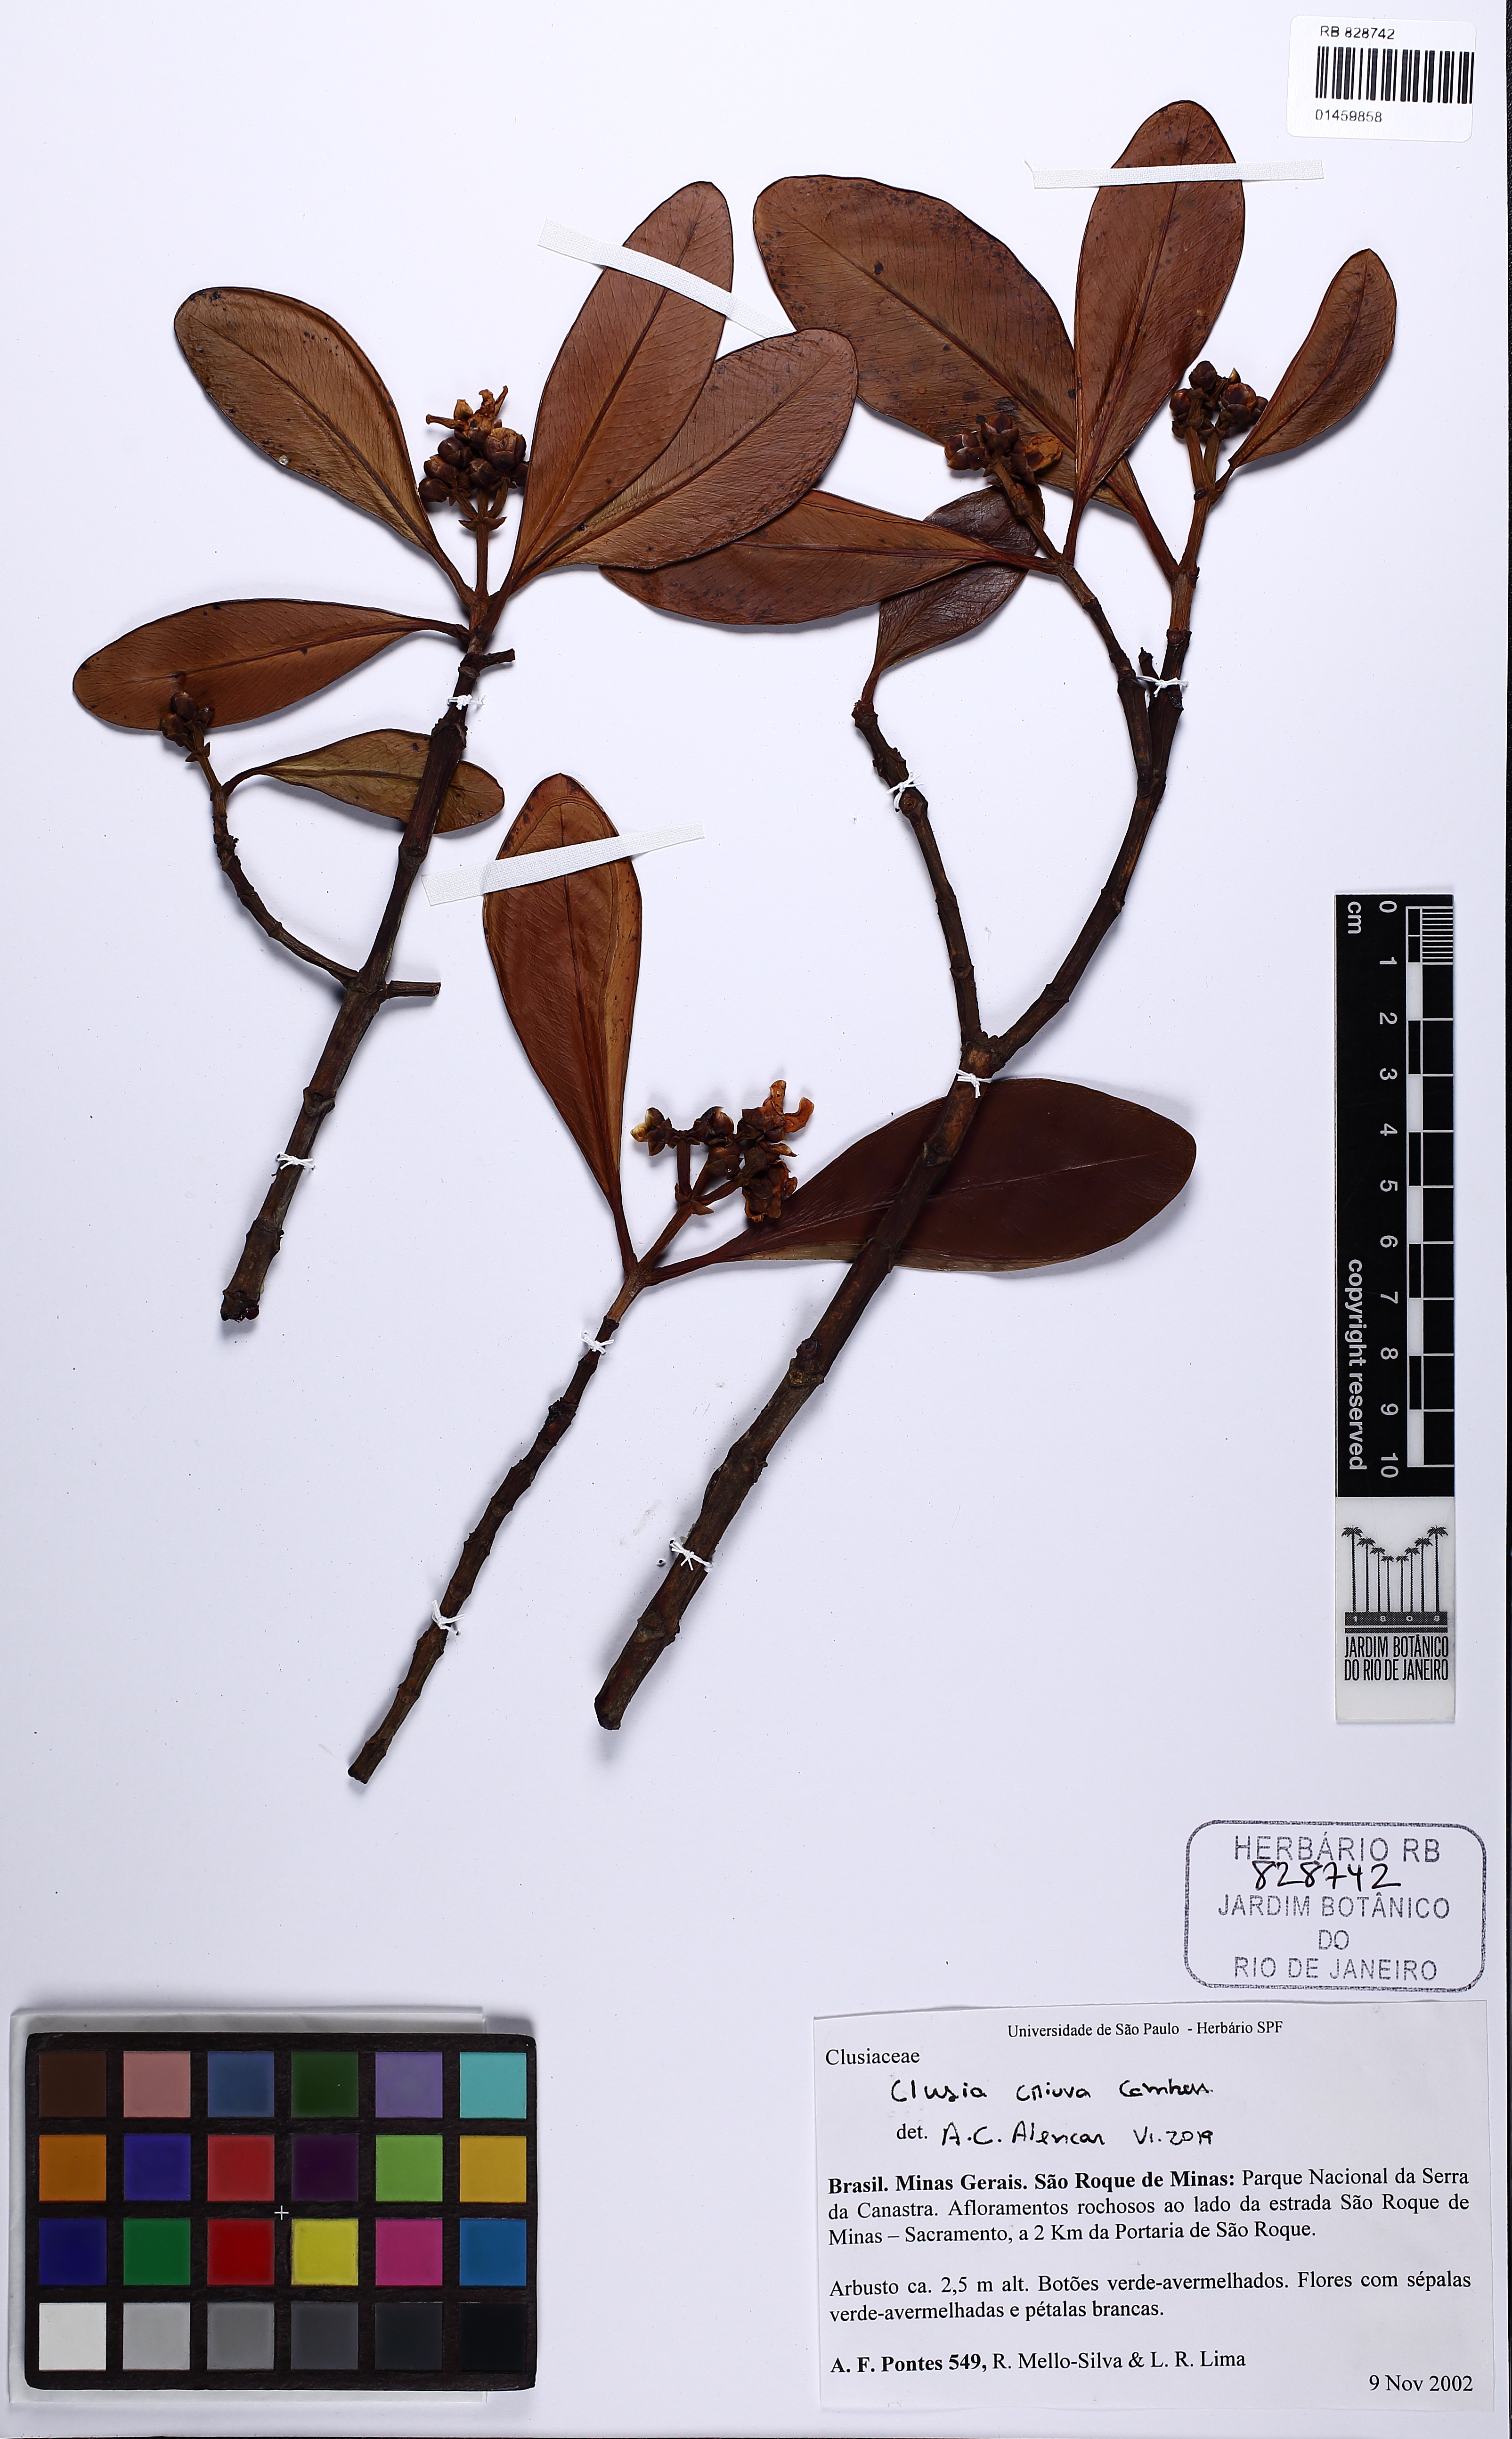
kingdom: Plantae
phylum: Tracheophyta
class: Magnoliopsida
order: Malpighiales
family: Clusiaceae
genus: Clusia
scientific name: Clusia criuva
